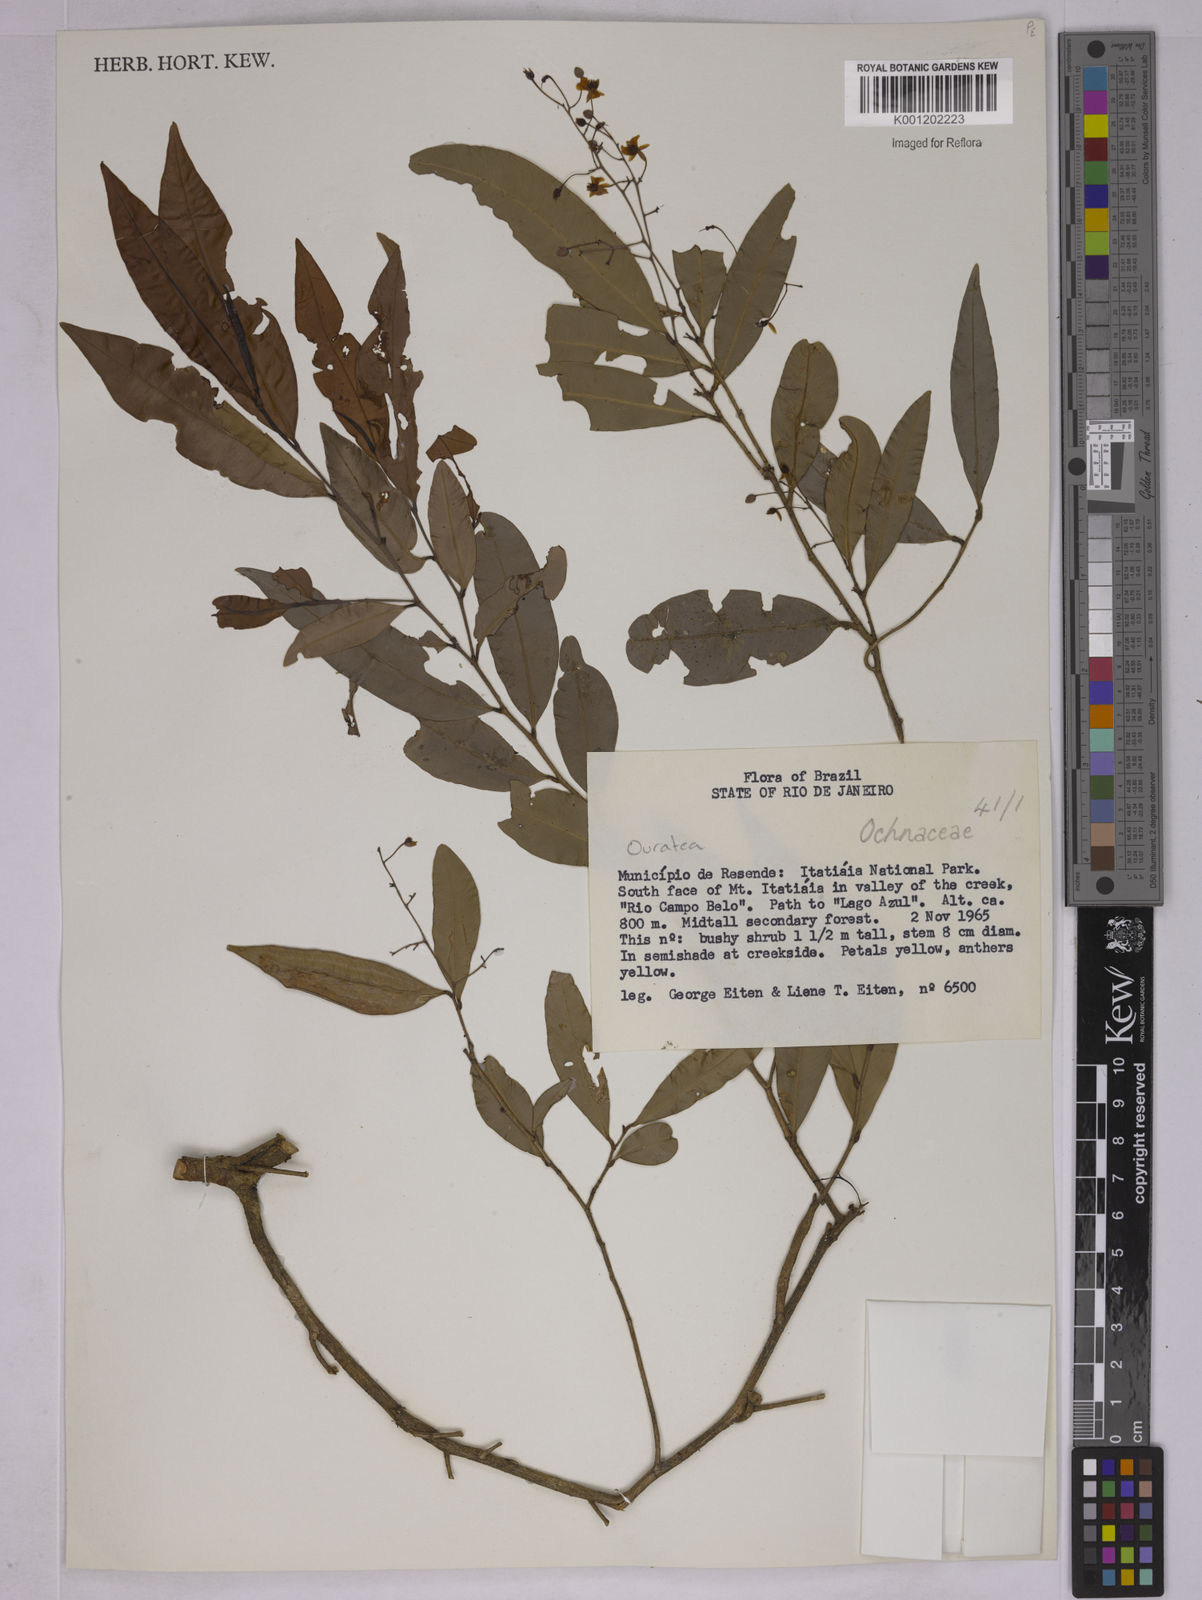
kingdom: Plantae
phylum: Tracheophyta
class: Magnoliopsida
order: Malpighiales
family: Ochnaceae
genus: Ouratea
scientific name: Ouratea
